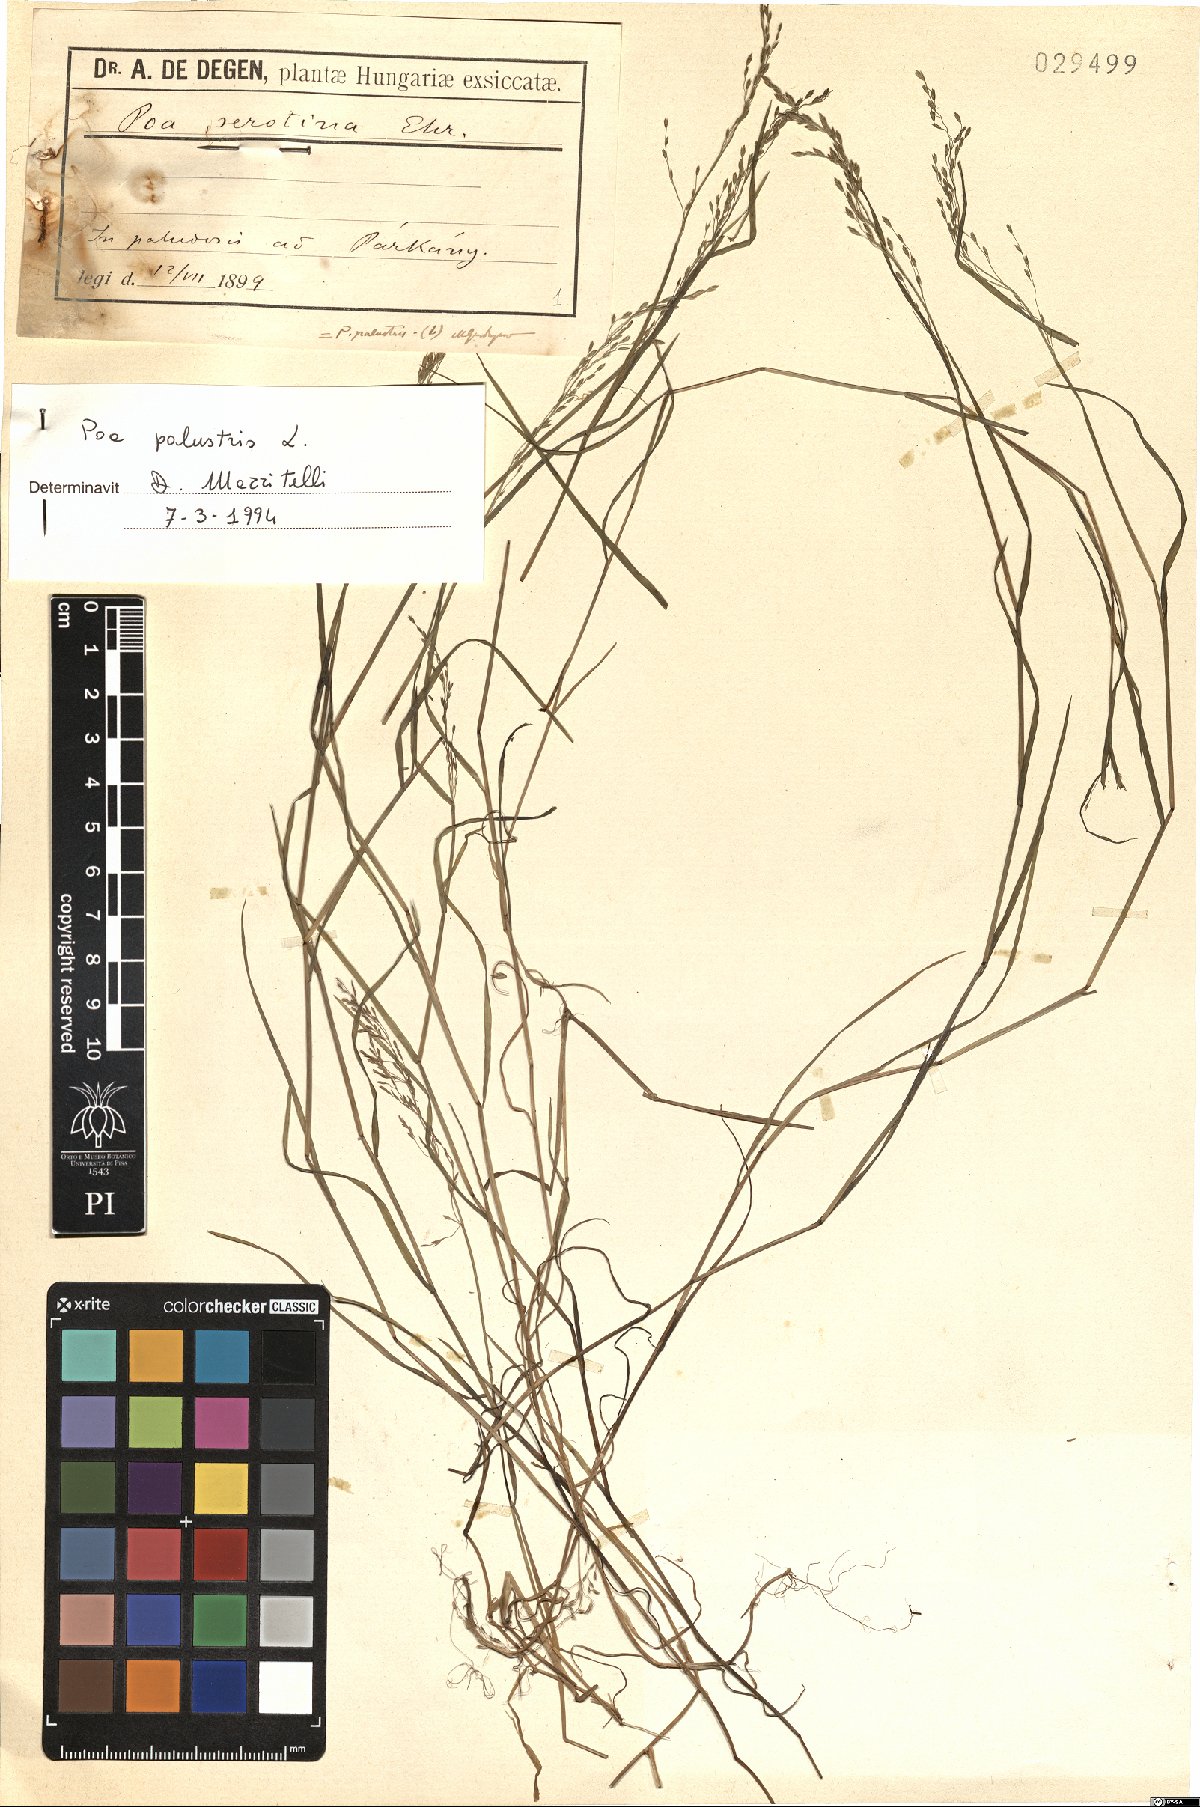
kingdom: Plantae
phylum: Tracheophyta
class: Liliopsida
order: Poales
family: Poaceae
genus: Poa
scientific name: Poa palustris
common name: Swamp meadow-grass
